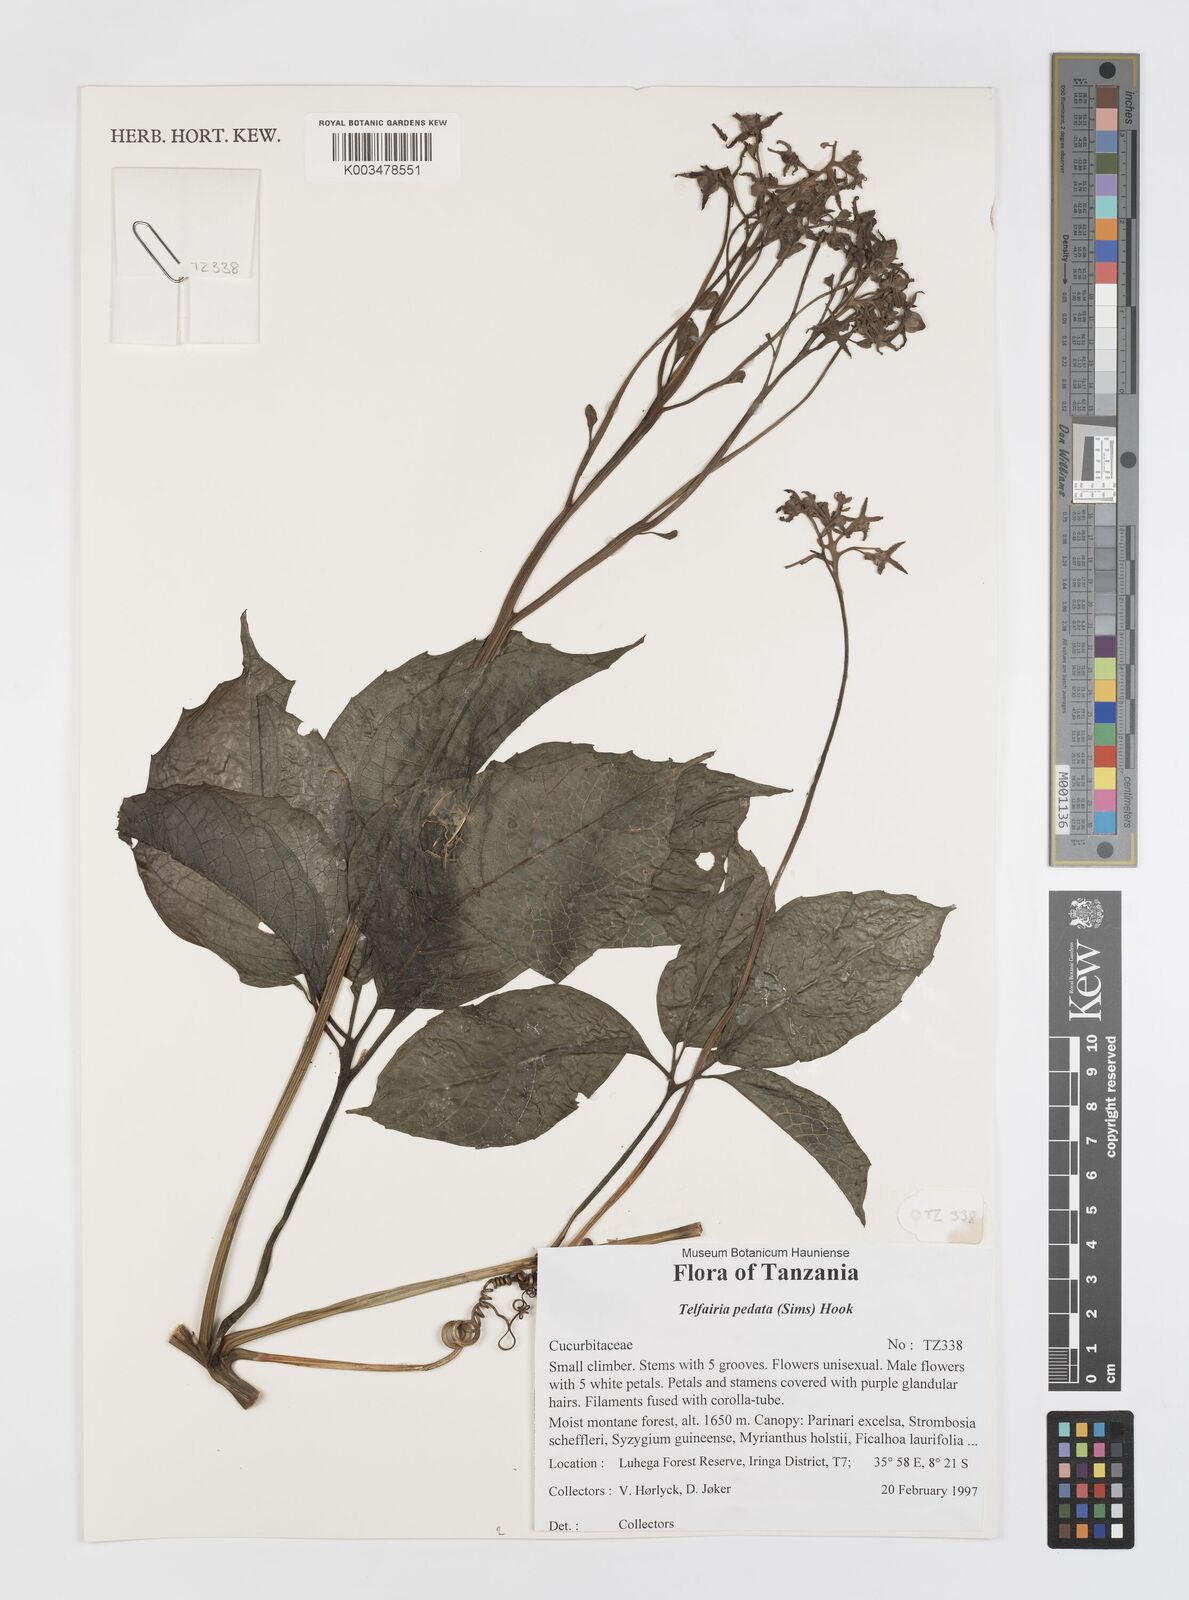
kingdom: Plantae
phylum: Tracheophyta
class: Magnoliopsida
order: Cucurbitales
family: Cucurbitaceae
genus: Telfairia
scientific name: Telfairia pedata
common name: Zanzibar oilvine
